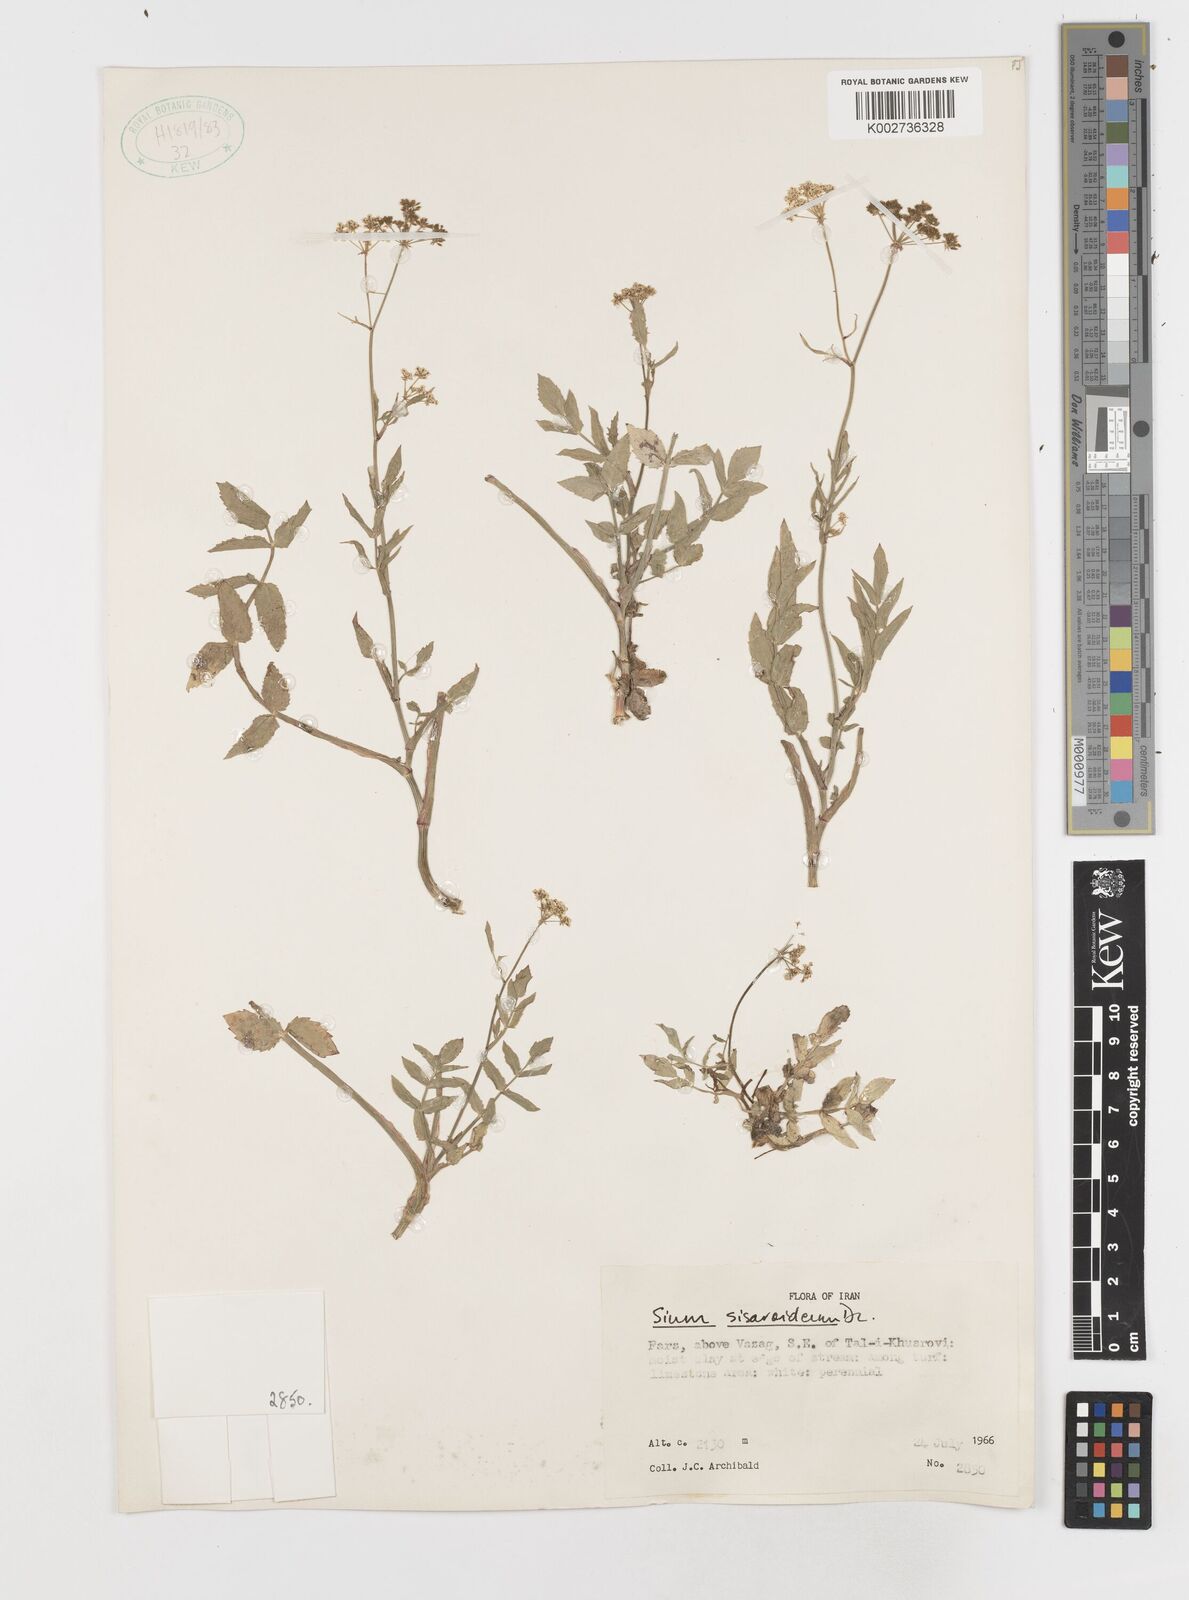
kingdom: Plantae
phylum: Tracheophyta
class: Magnoliopsida
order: Apiales
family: Apiaceae
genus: Sium
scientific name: Sium sisarum
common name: Skirret
